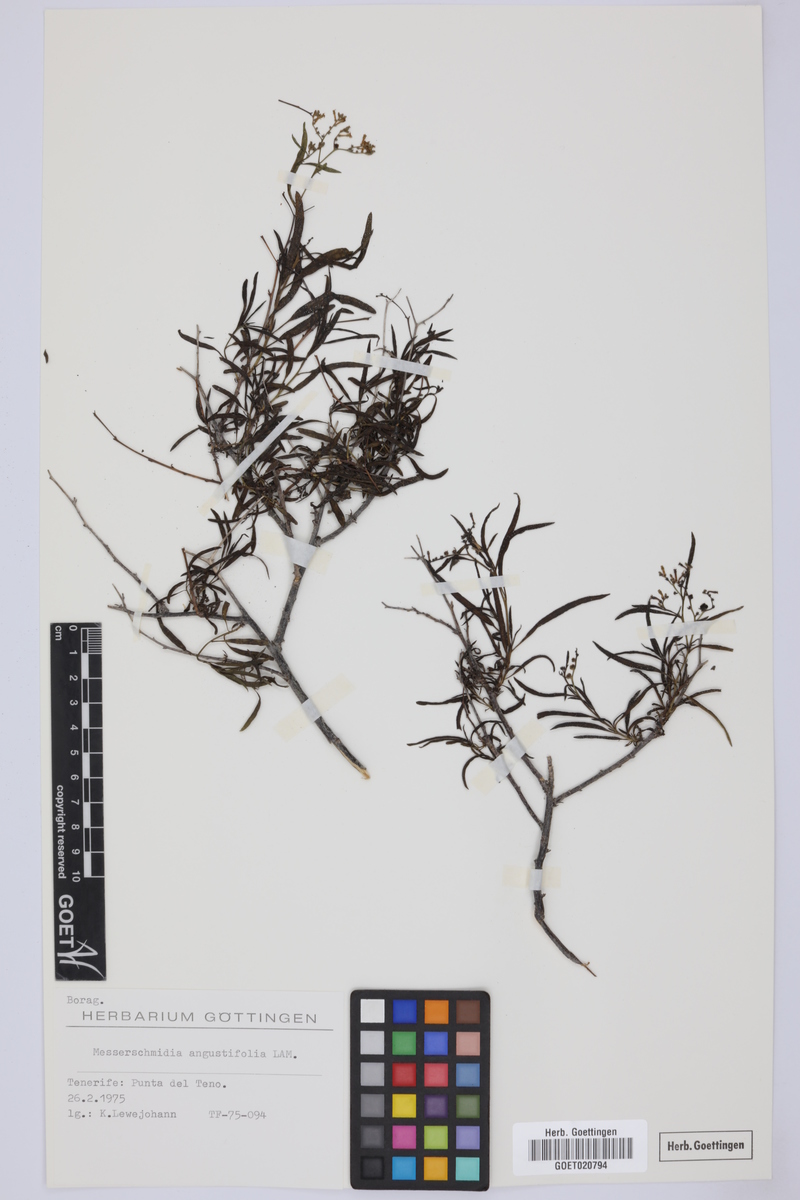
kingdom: Plantae
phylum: Tracheophyta
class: Magnoliopsida
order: Boraginales
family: Heliotropiaceae
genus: Heliotropium
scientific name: Heliotropium messerschmidioides
